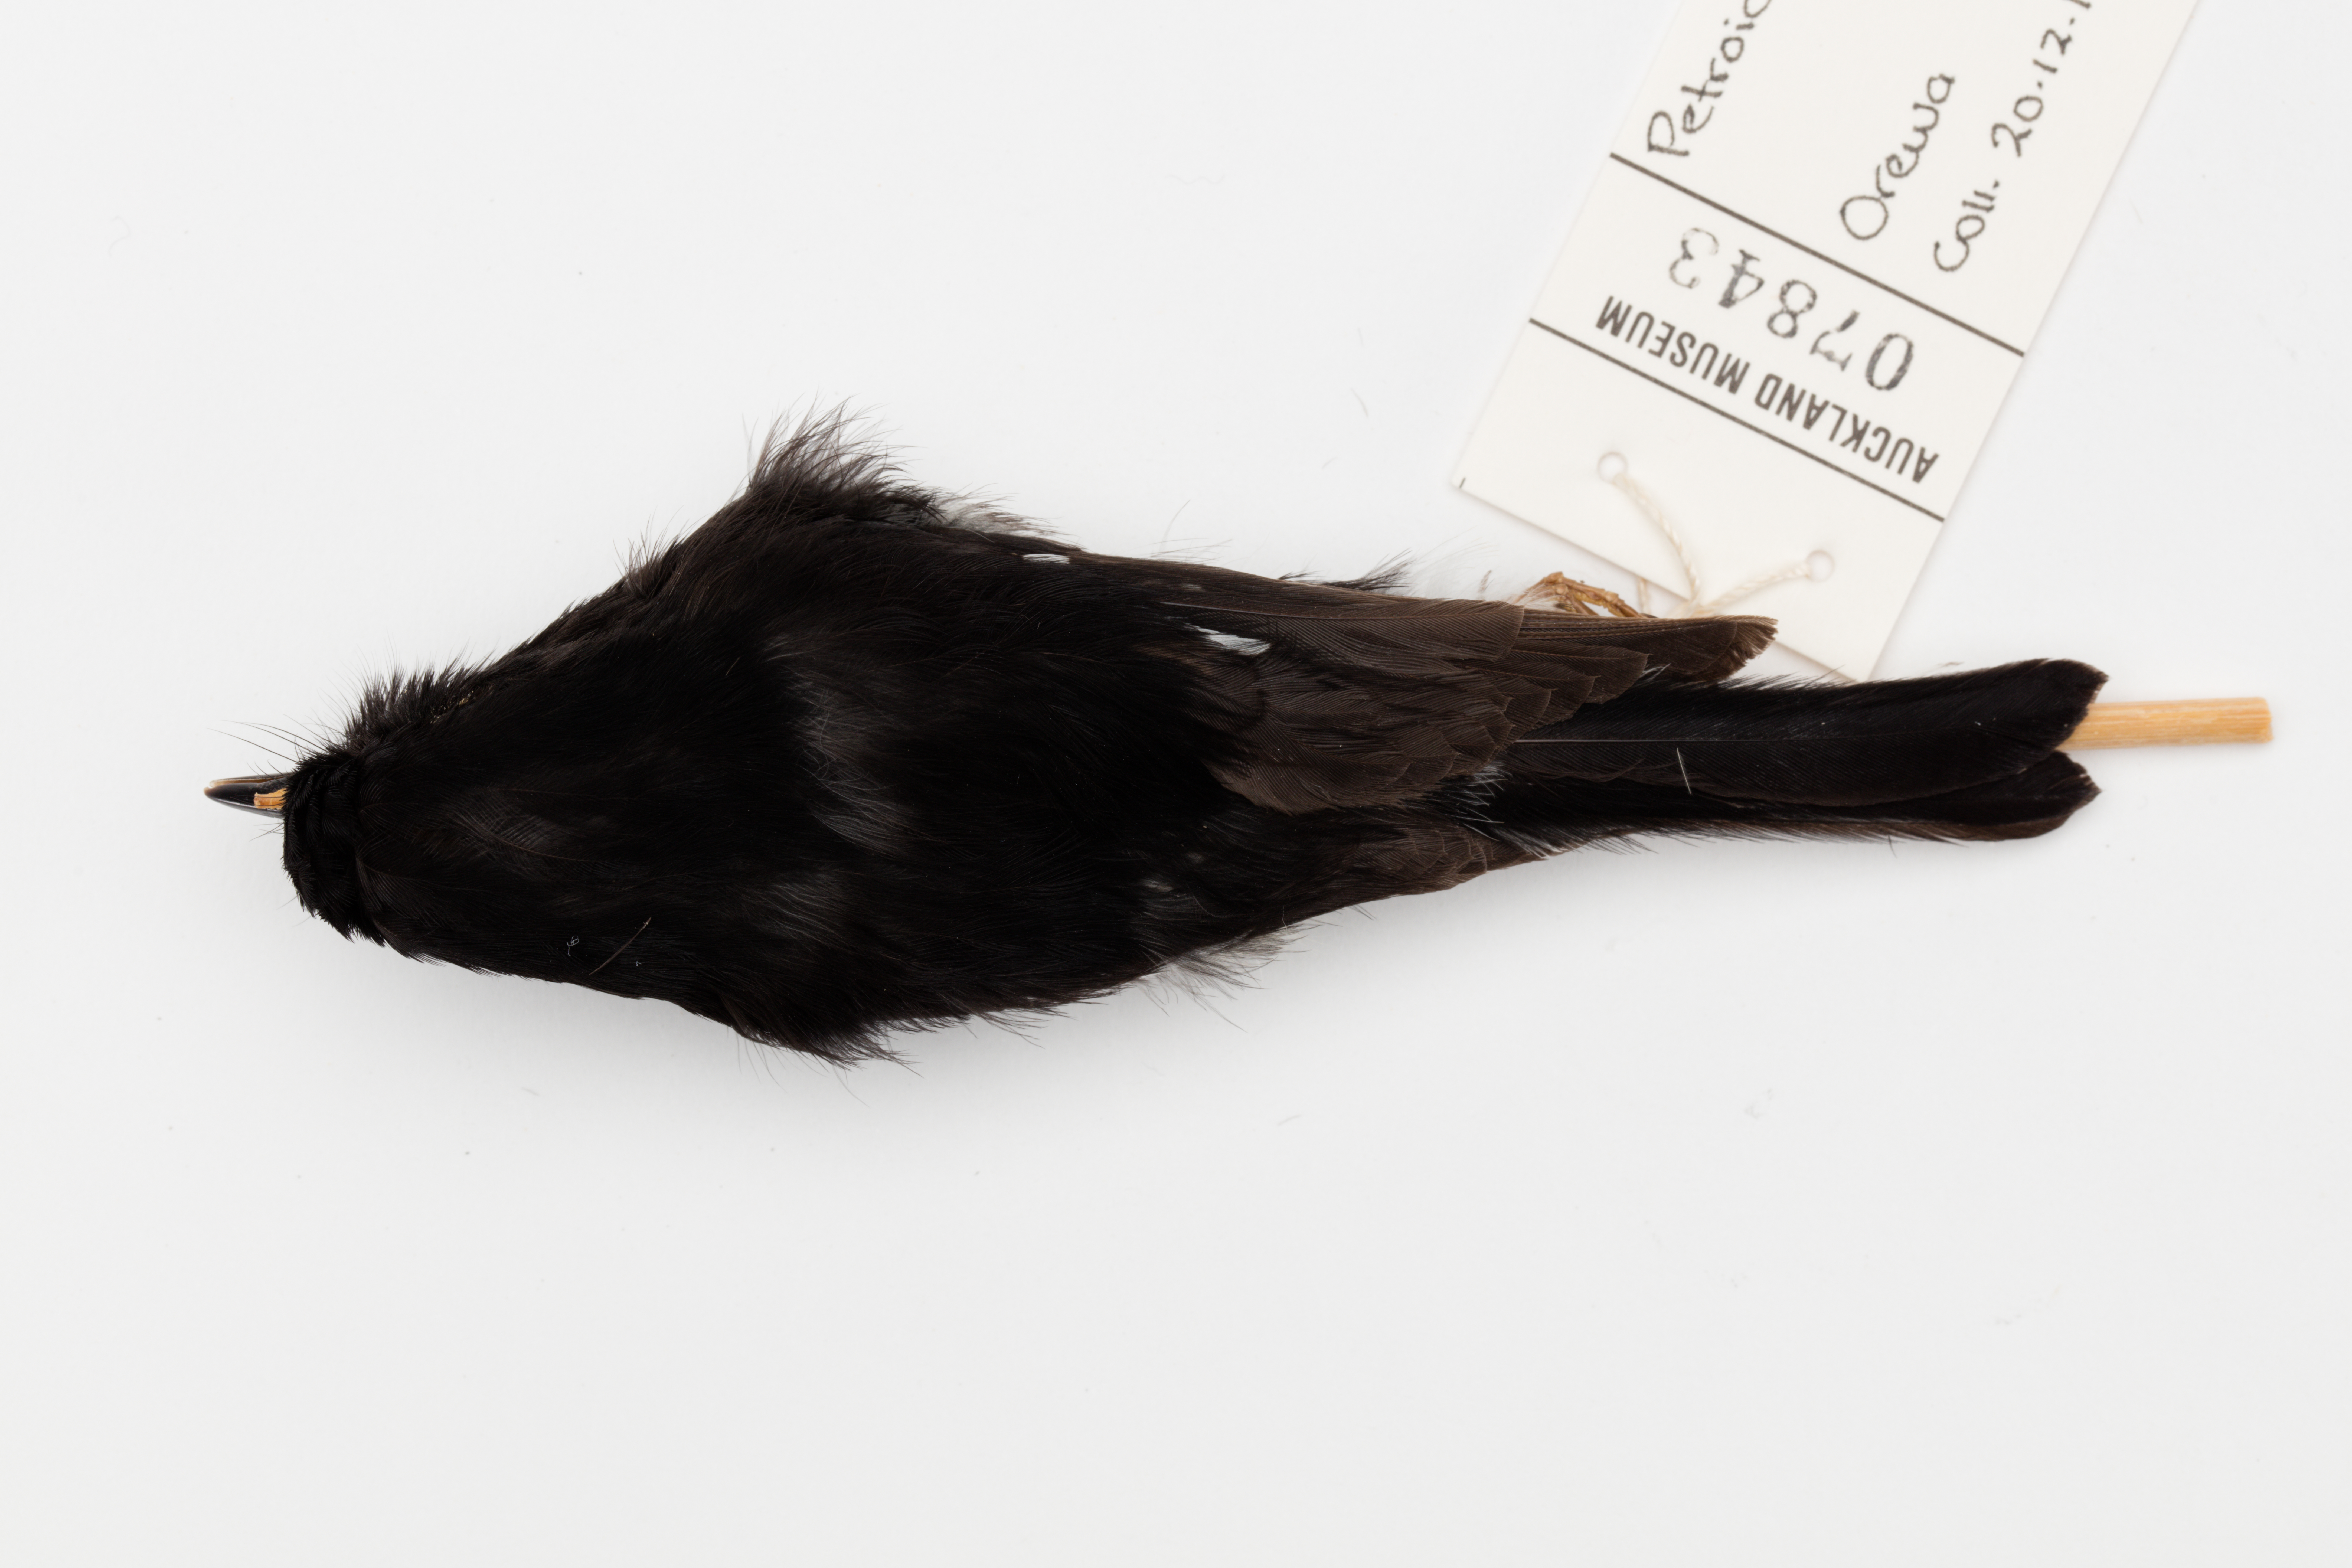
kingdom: Animalia
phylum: Chordata
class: Aves
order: Passeriformes
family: Petroicidae
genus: Petroica
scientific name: Petroica macrocephala
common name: Tomtit
